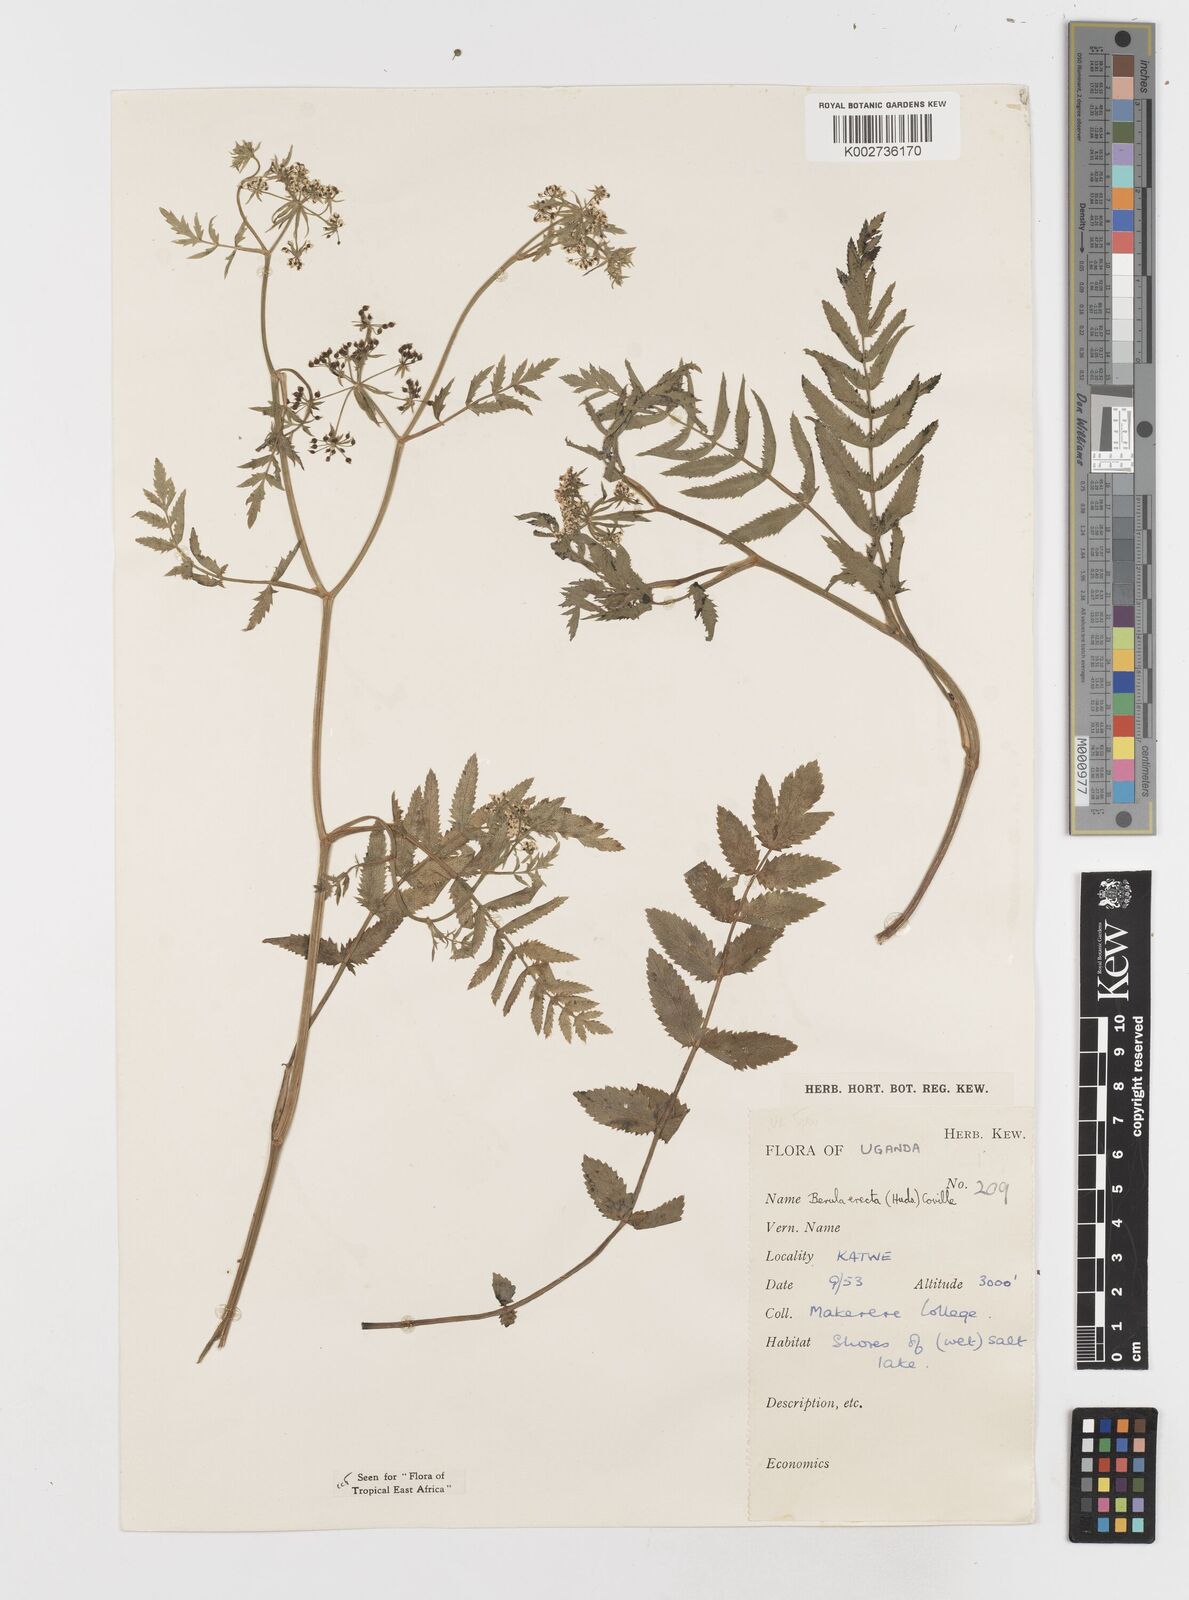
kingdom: Plantae
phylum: Tracheophyta
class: Magnoliopsida
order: Apiales
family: Apiaceae
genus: Berula
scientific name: Berula erecta
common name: Lesser water-parsnip
